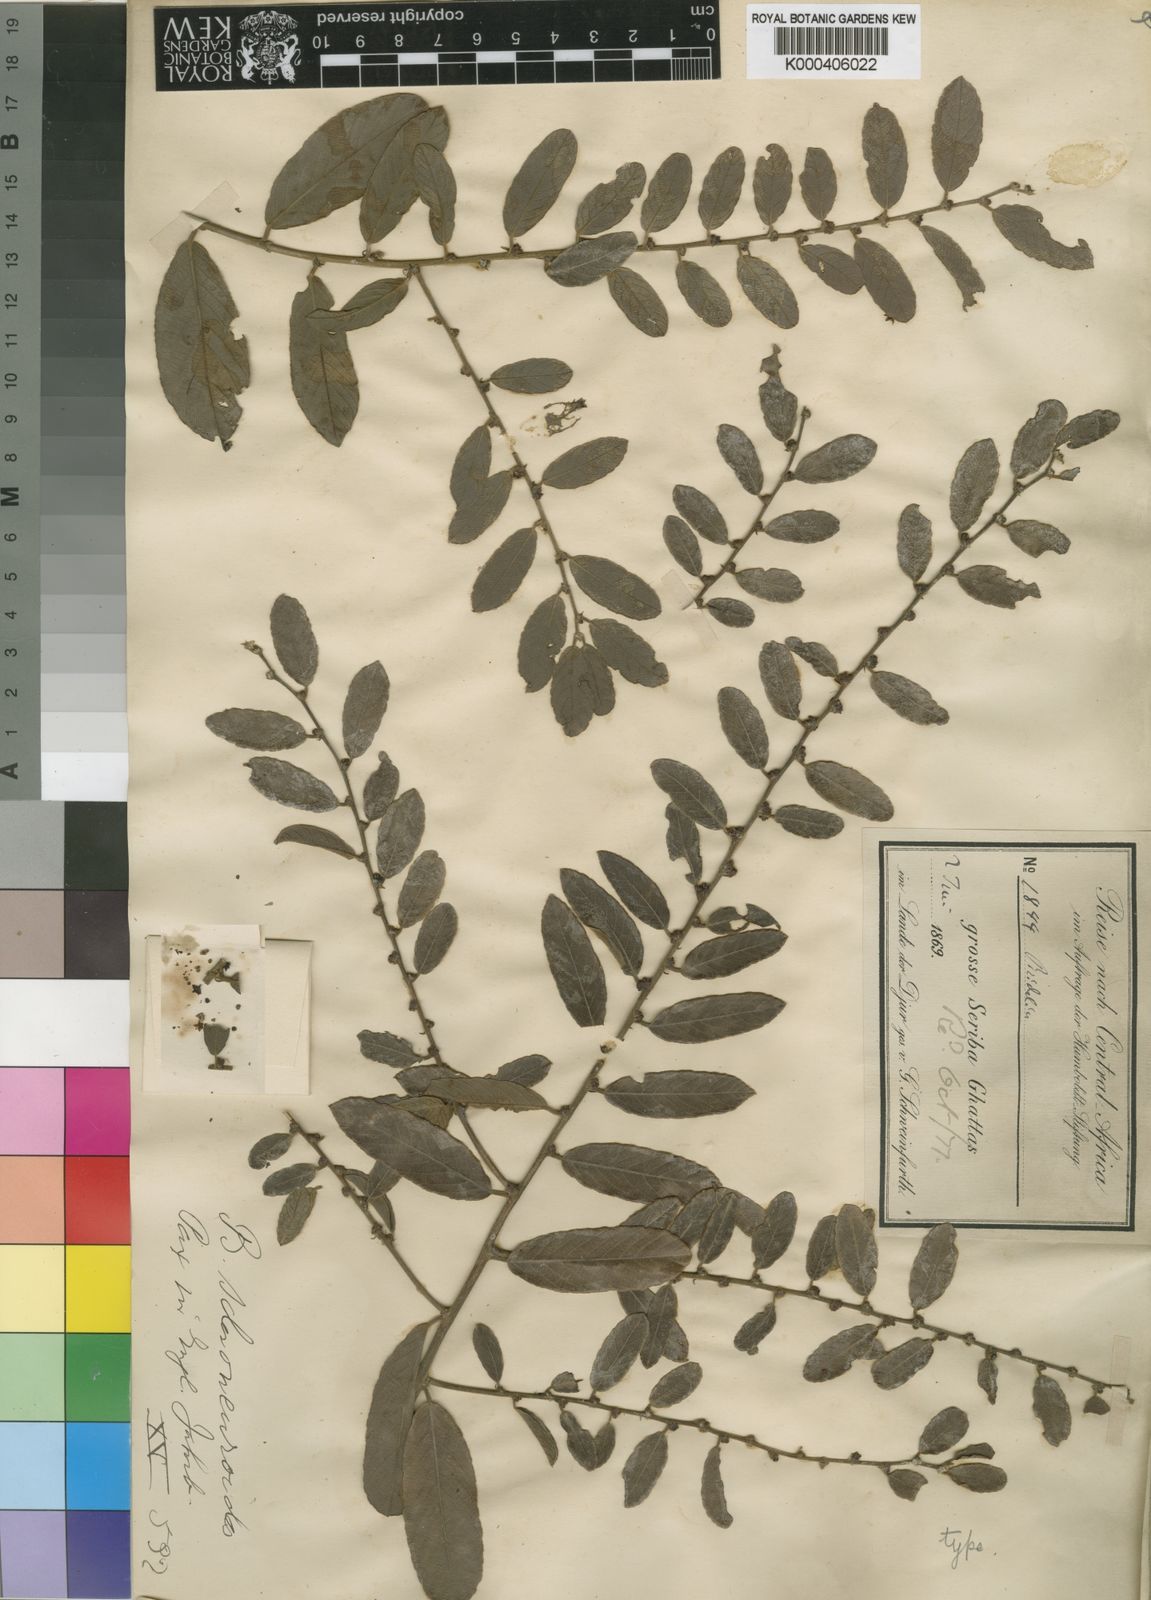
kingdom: Plantae
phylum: Tracheophyta
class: Magnoliopsida
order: Malpighiales
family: Phyllanthaceae
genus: Bridelia
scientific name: Bridelia
